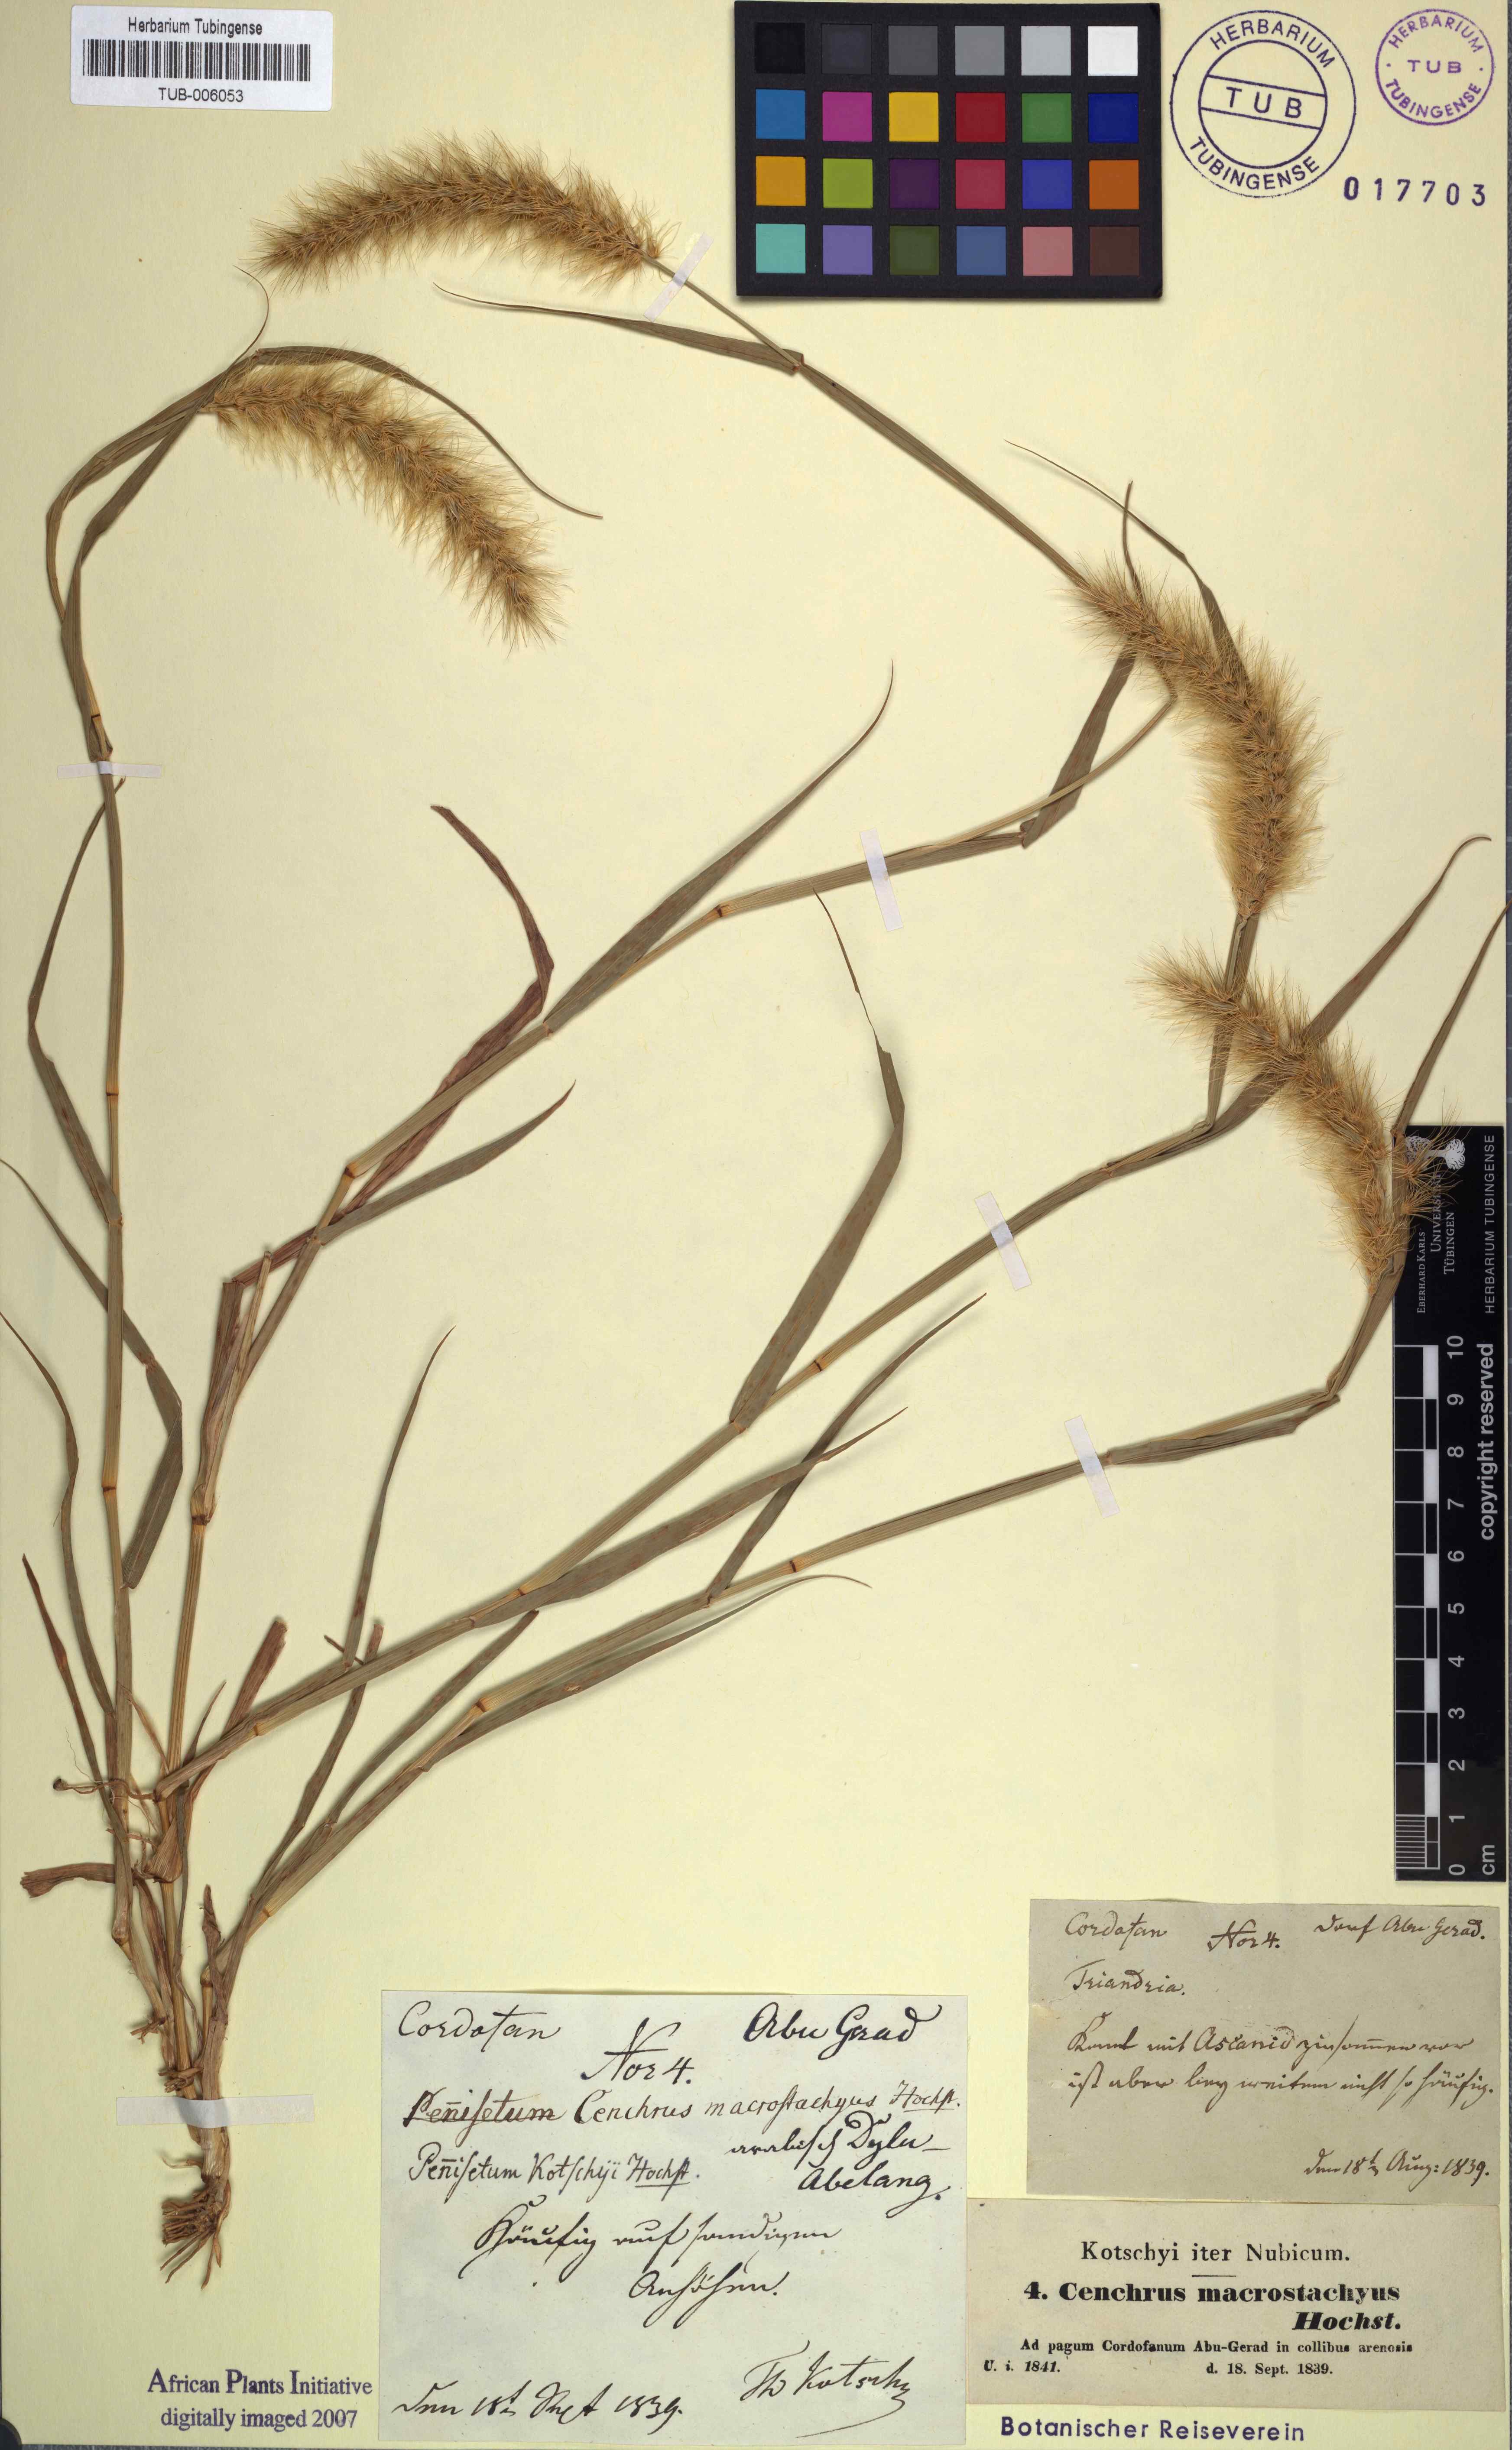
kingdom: Plantae
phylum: Tracheophyta
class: Liliopsida
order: Poales
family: Poaceae
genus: Cenchrus
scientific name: Cenchrus prieurii
